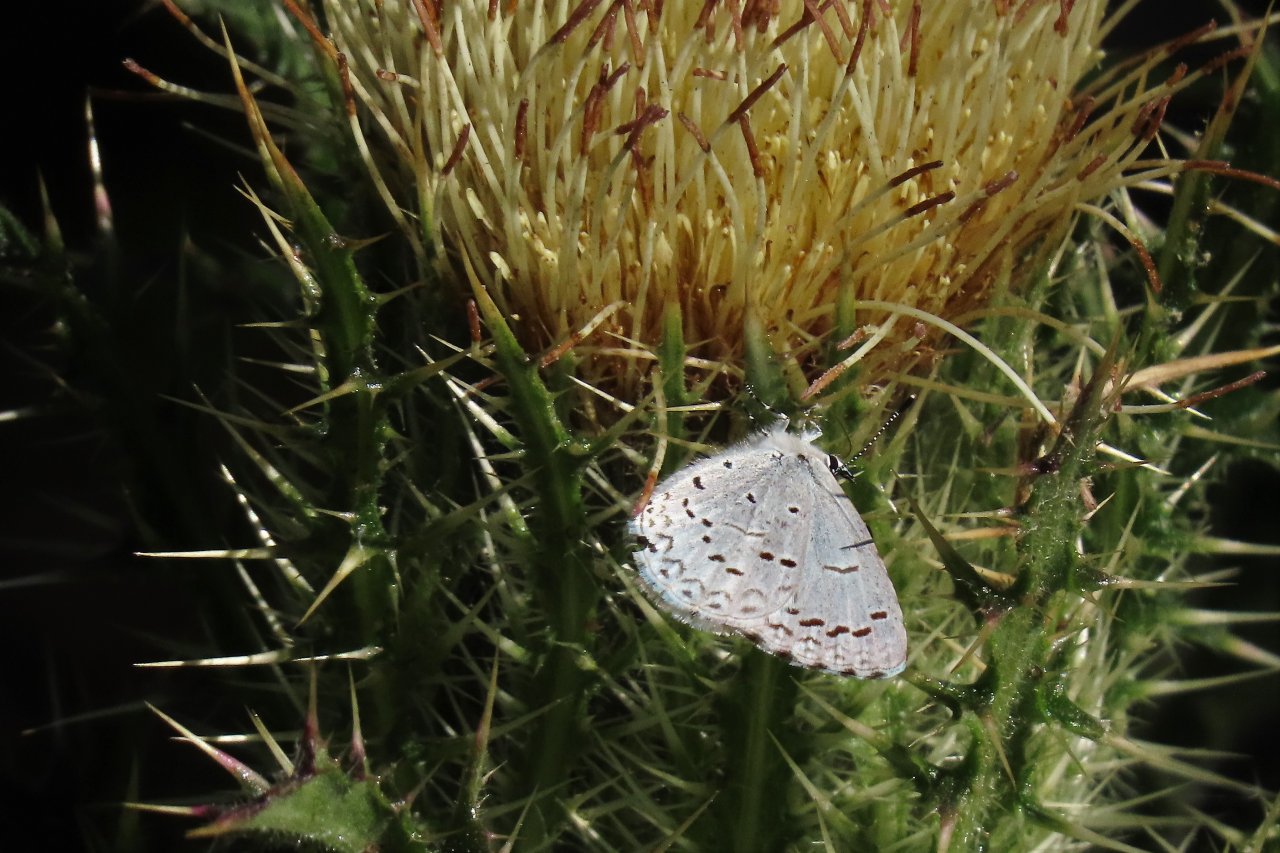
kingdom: Animalia
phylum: Arthropoda
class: Insecta
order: Lepidoptera
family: Lycaenidae
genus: Celastrina
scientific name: Celastrina ladon
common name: Spring Azure
